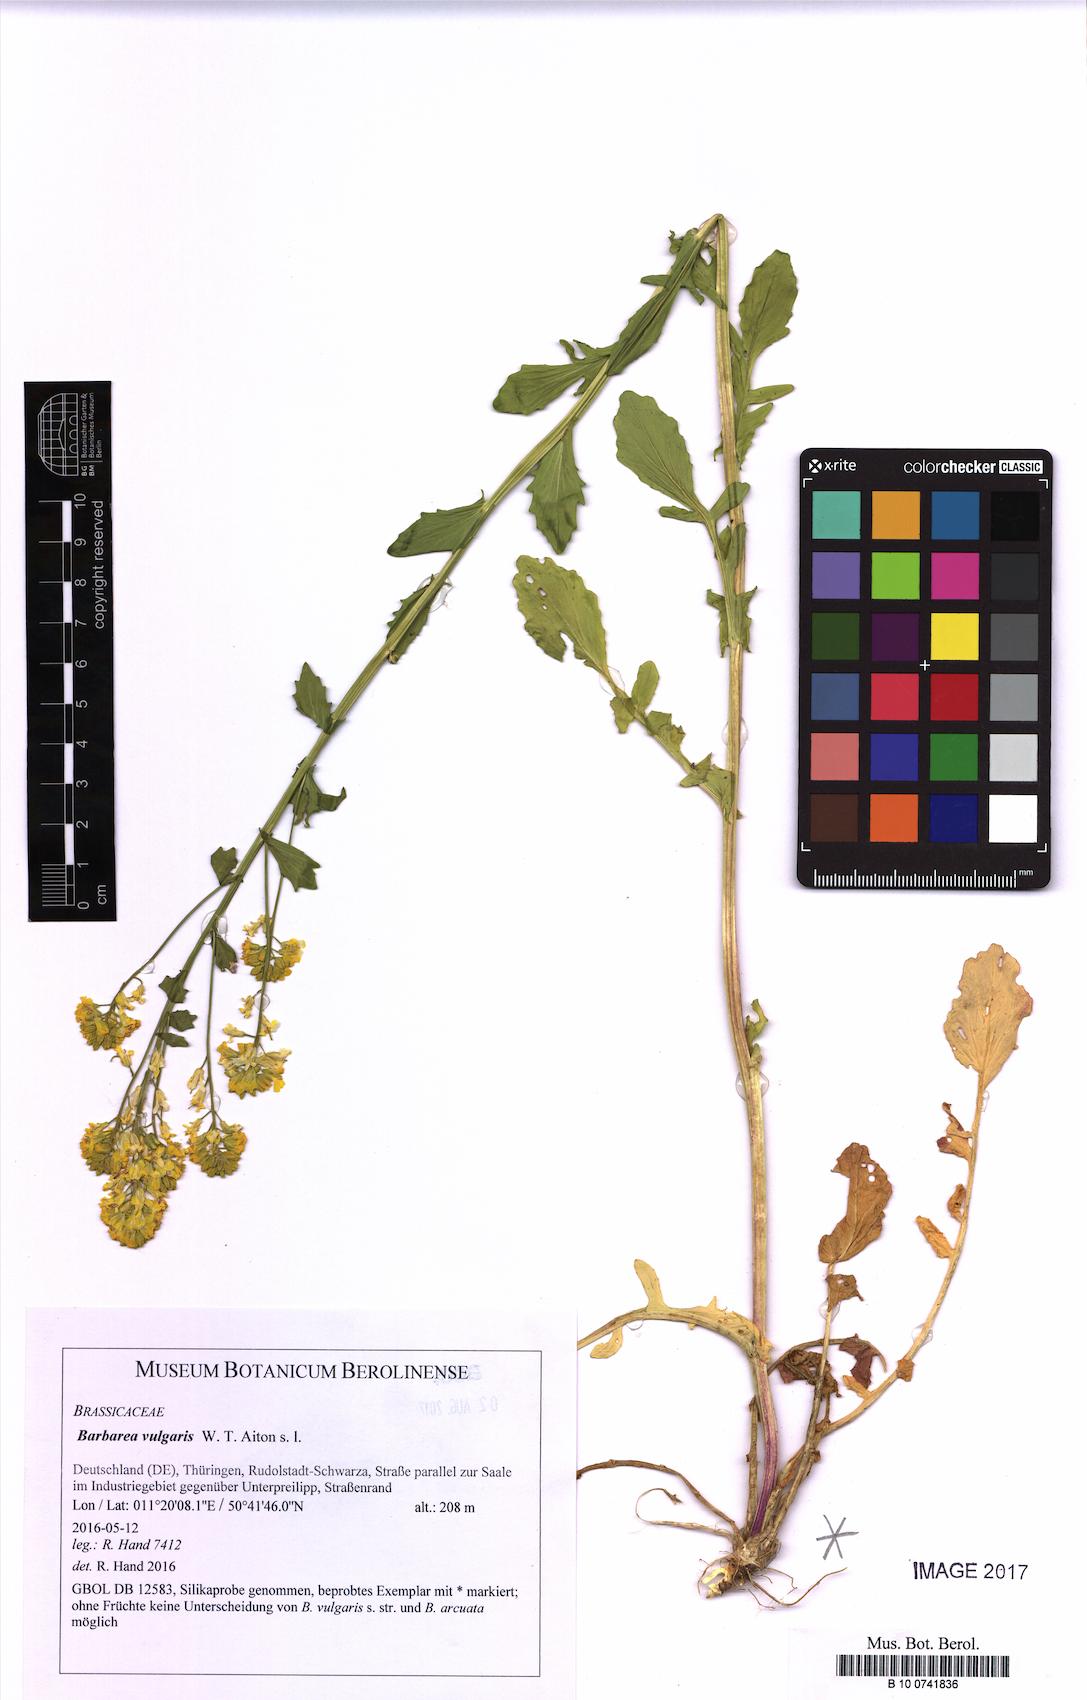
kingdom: Plantae
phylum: Tracheophyta
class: Magnoliopsida
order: Brassicales
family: Brassicaceae
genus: Barbarea
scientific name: Barbarea vulgaris
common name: Cressy-greens
